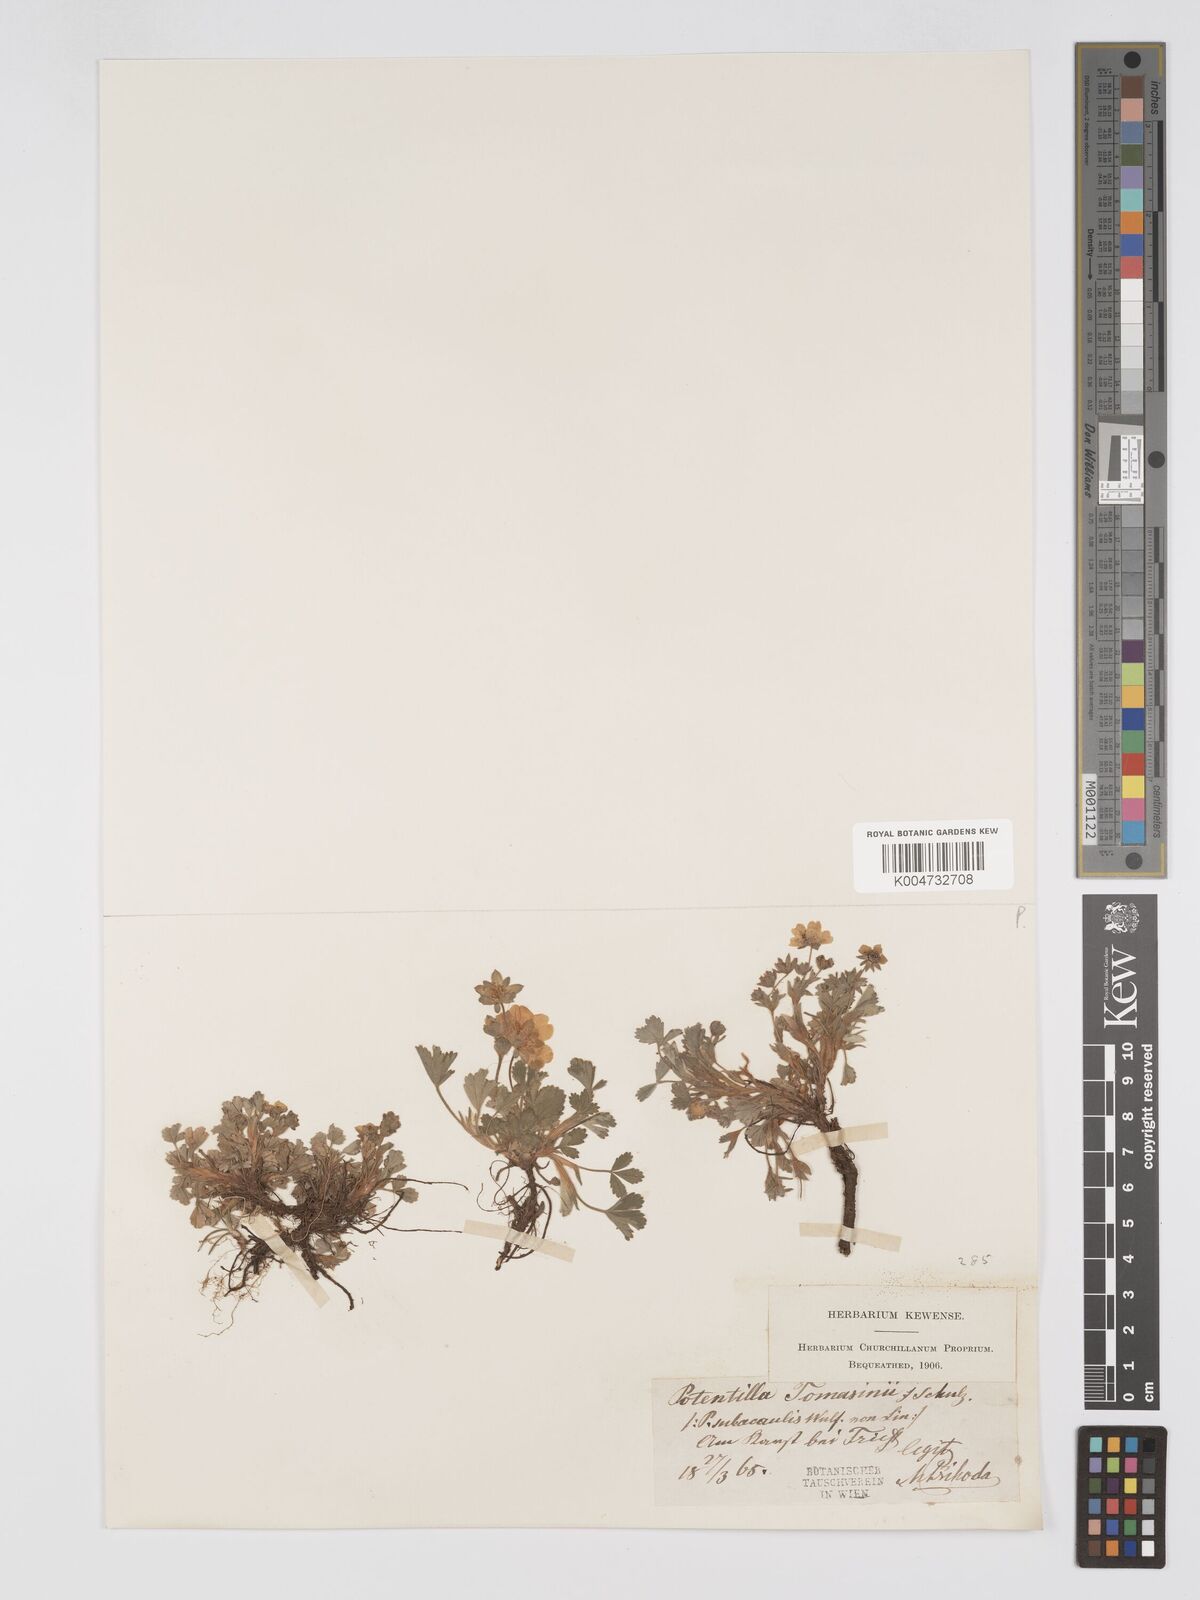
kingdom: Plantae
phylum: Tracheophyta
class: Magnoliopsida
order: Rosales
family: Rosaceae
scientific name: Rosaceae
